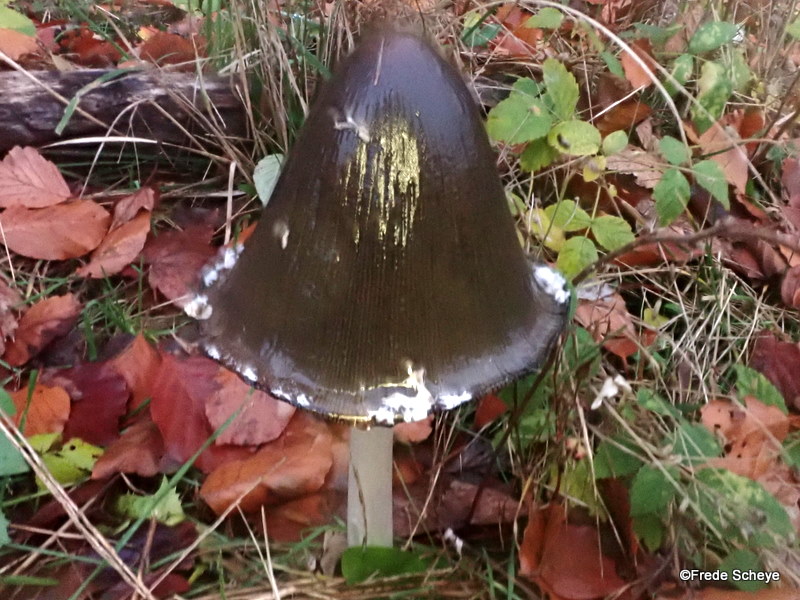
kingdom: Fungi
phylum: Basidiomycota
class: Agaricomycetes
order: Agaricales
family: Psathyrellaceae
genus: Coprinopsis
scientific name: Coprinopsis picacea
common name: skade-blækhat
